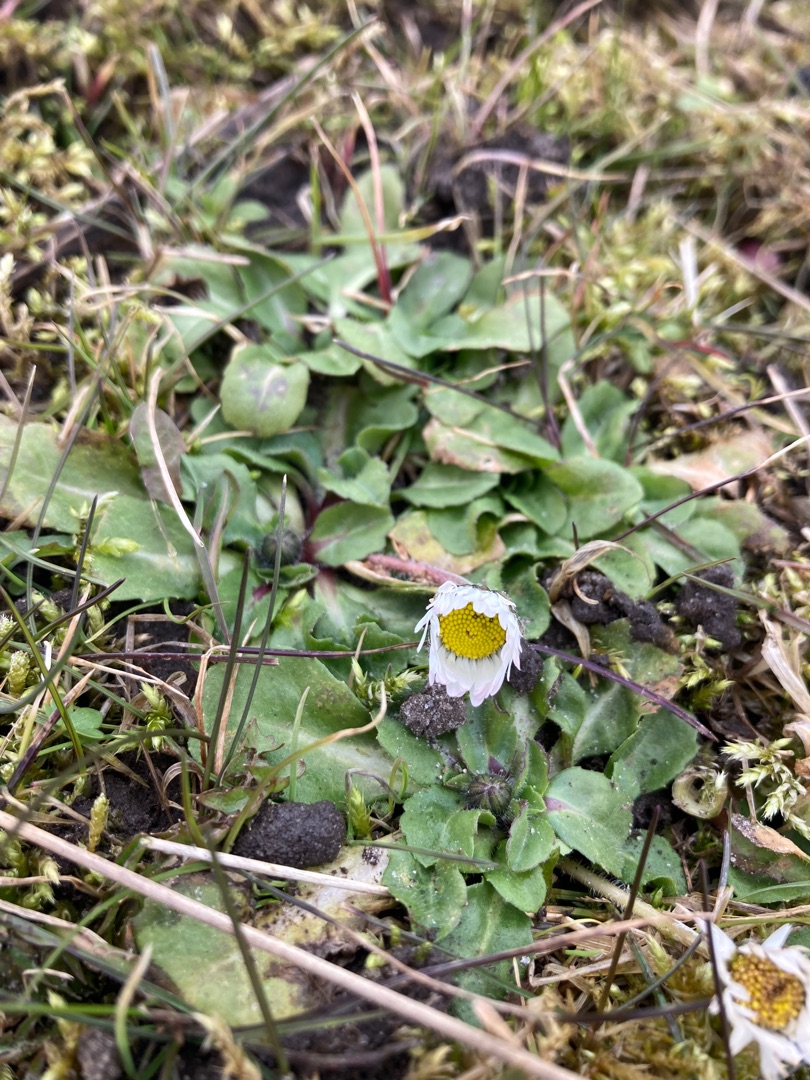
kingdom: Plantae
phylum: Tracheophyta
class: Magnoliopsida
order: Asterales
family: Asteraceae
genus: Bellis
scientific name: Bellis perennis
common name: Tusindfryd
